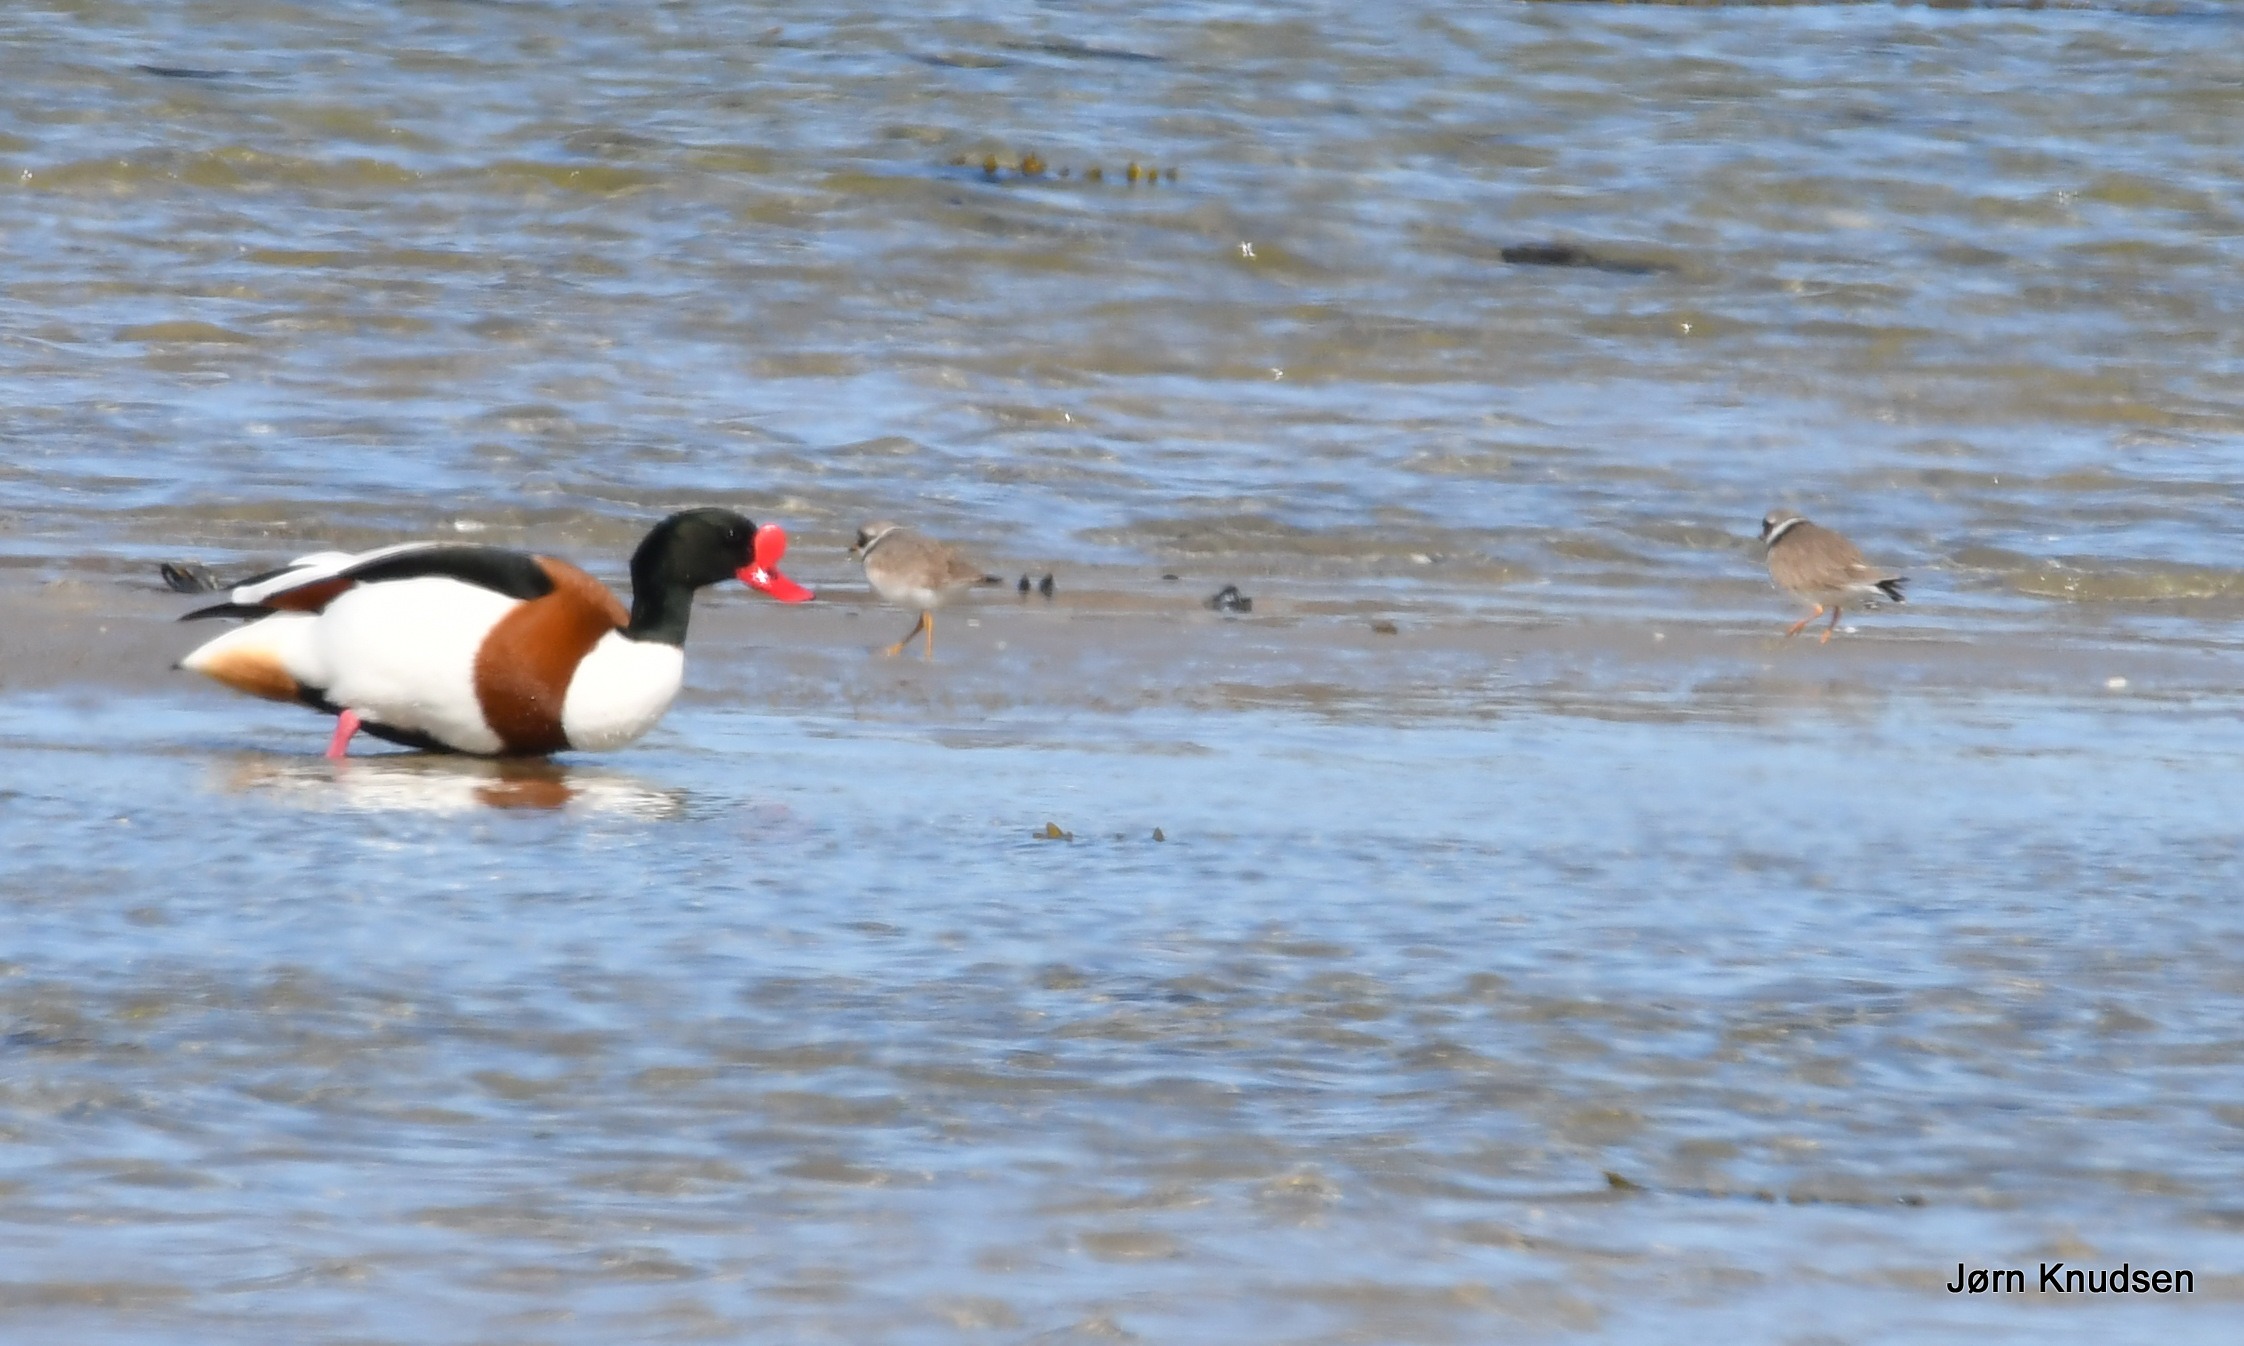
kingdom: Animalia
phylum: Chordata
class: Aves
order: Charadriiformes
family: Charadriidae
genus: Charadrius
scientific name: Charadrius hiaticula
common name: Stor præstekrave
